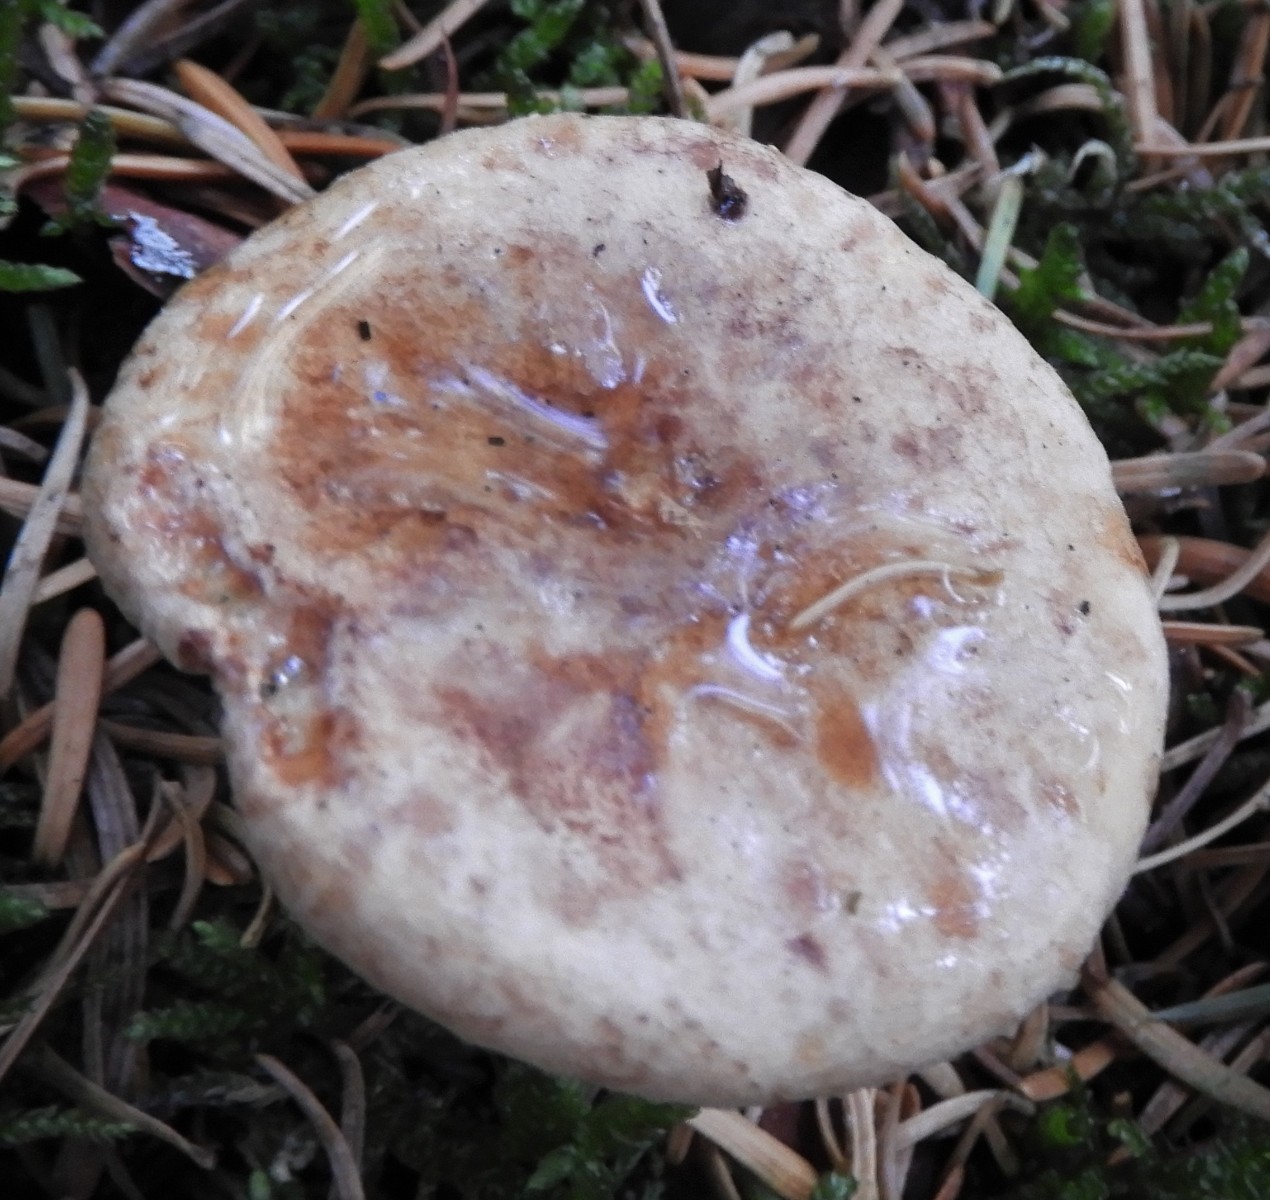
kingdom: Fungi
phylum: Basidiomycota
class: Agaricomycetes
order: Boletales
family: Paxillaceae
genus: Paxillus
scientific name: Paxillus
